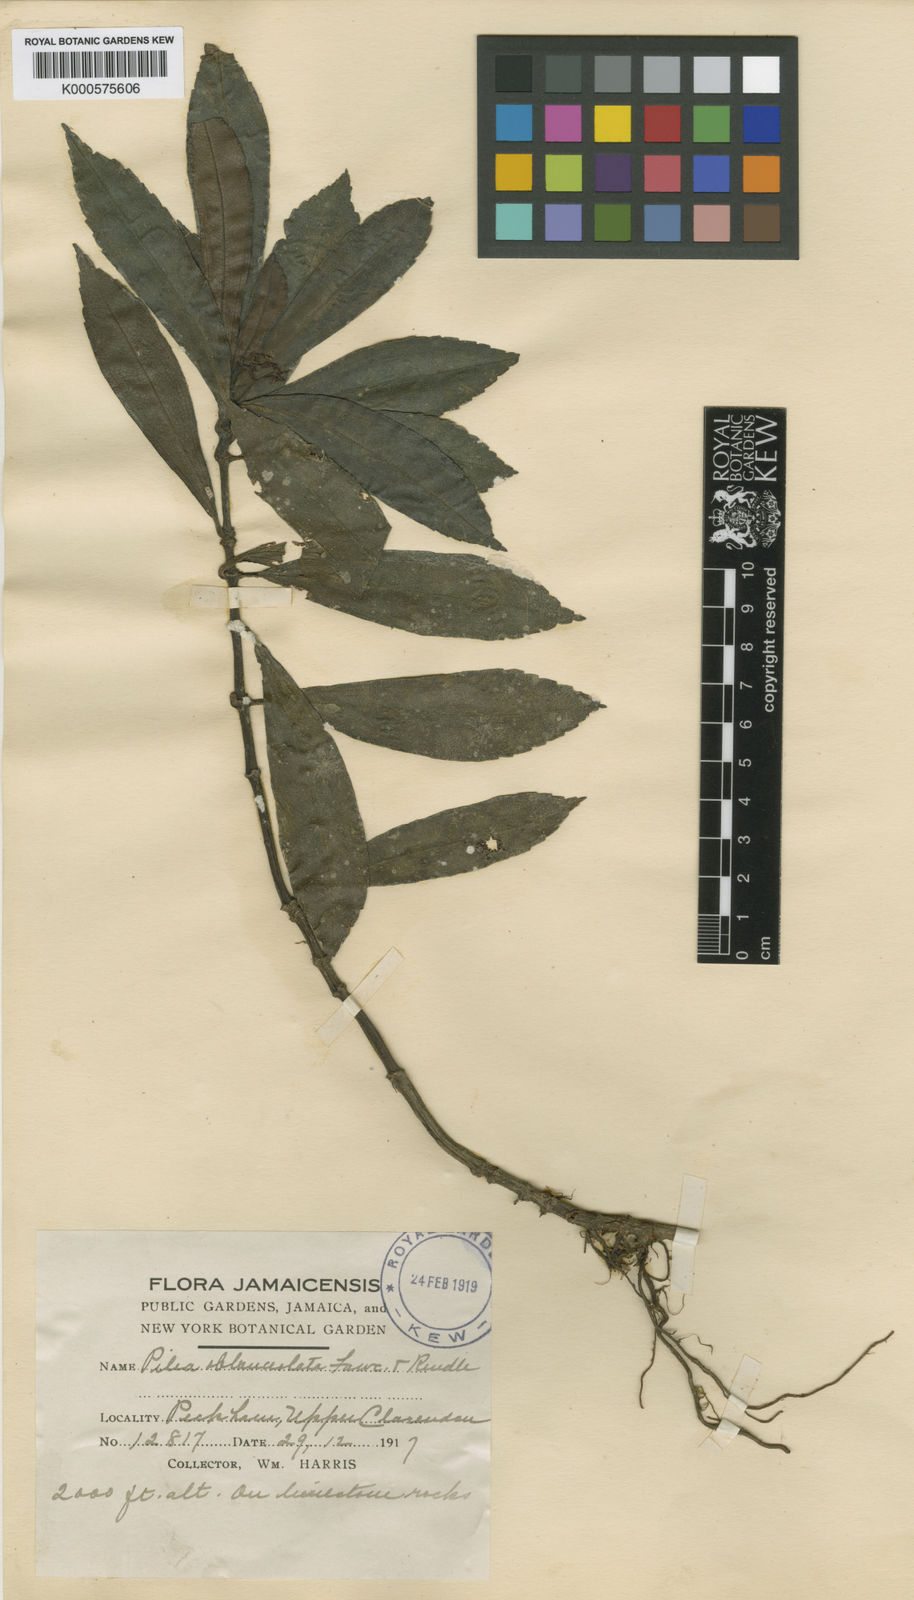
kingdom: Plantae
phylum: Tracheophyta
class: Magnoliopsida
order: Rosales
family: Urticaceae
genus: Pilea
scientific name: Pilea oblanceolata
